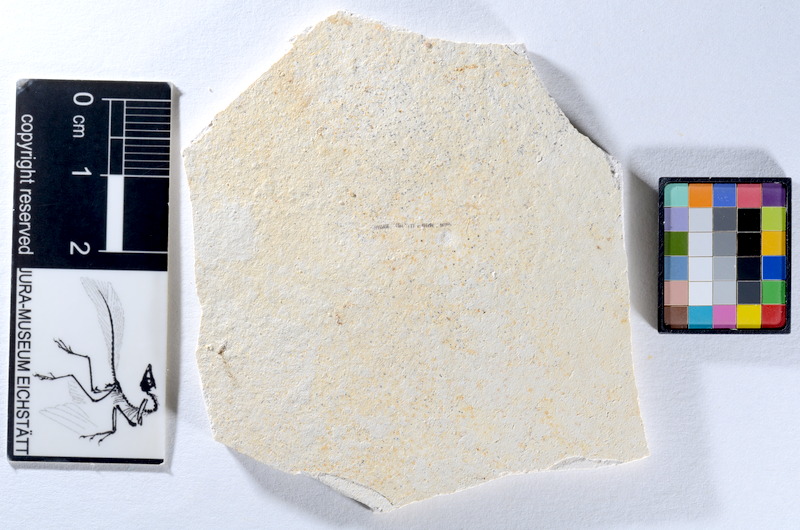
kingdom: Animalia
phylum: Chordata
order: Salmoniformes
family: Orthogonikleithridae
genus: Orthogonikleithrus
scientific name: Orthogonikleithrus hoelli
